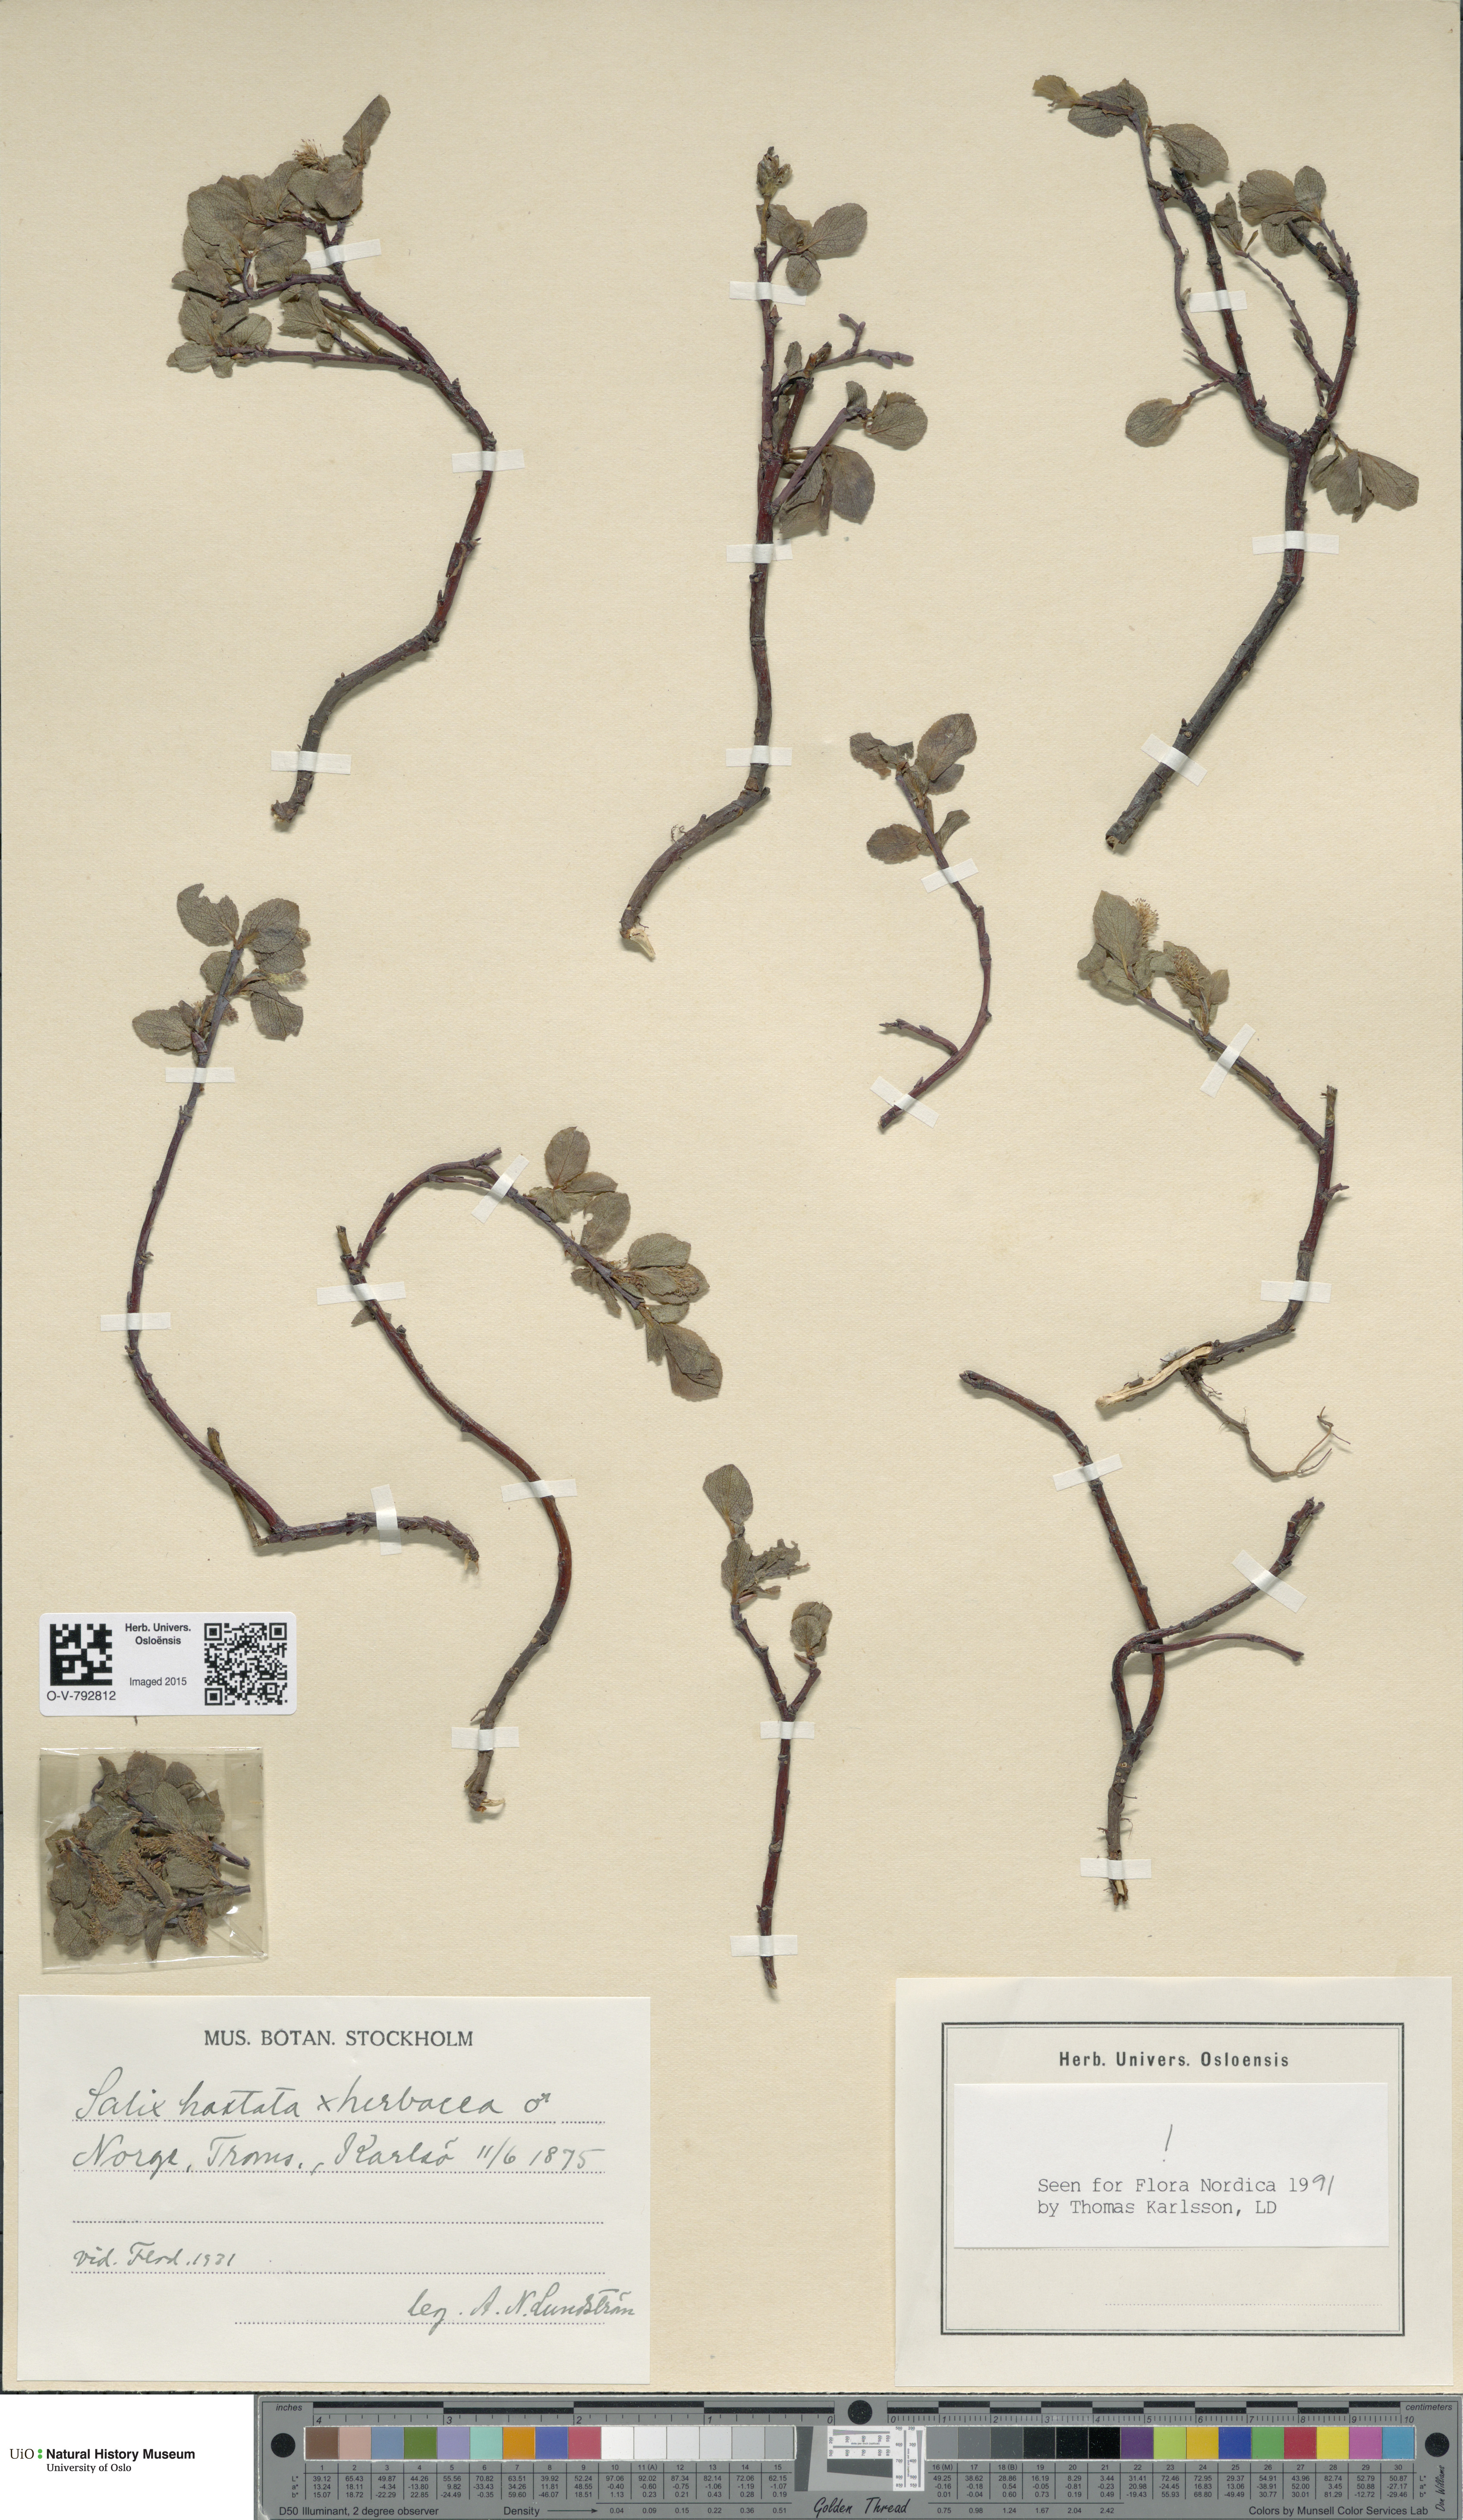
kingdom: Plantae
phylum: Tracheophyta
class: Magnoliopsida
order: Malpighiales
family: Salicaceae
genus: Salix
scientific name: Salix
